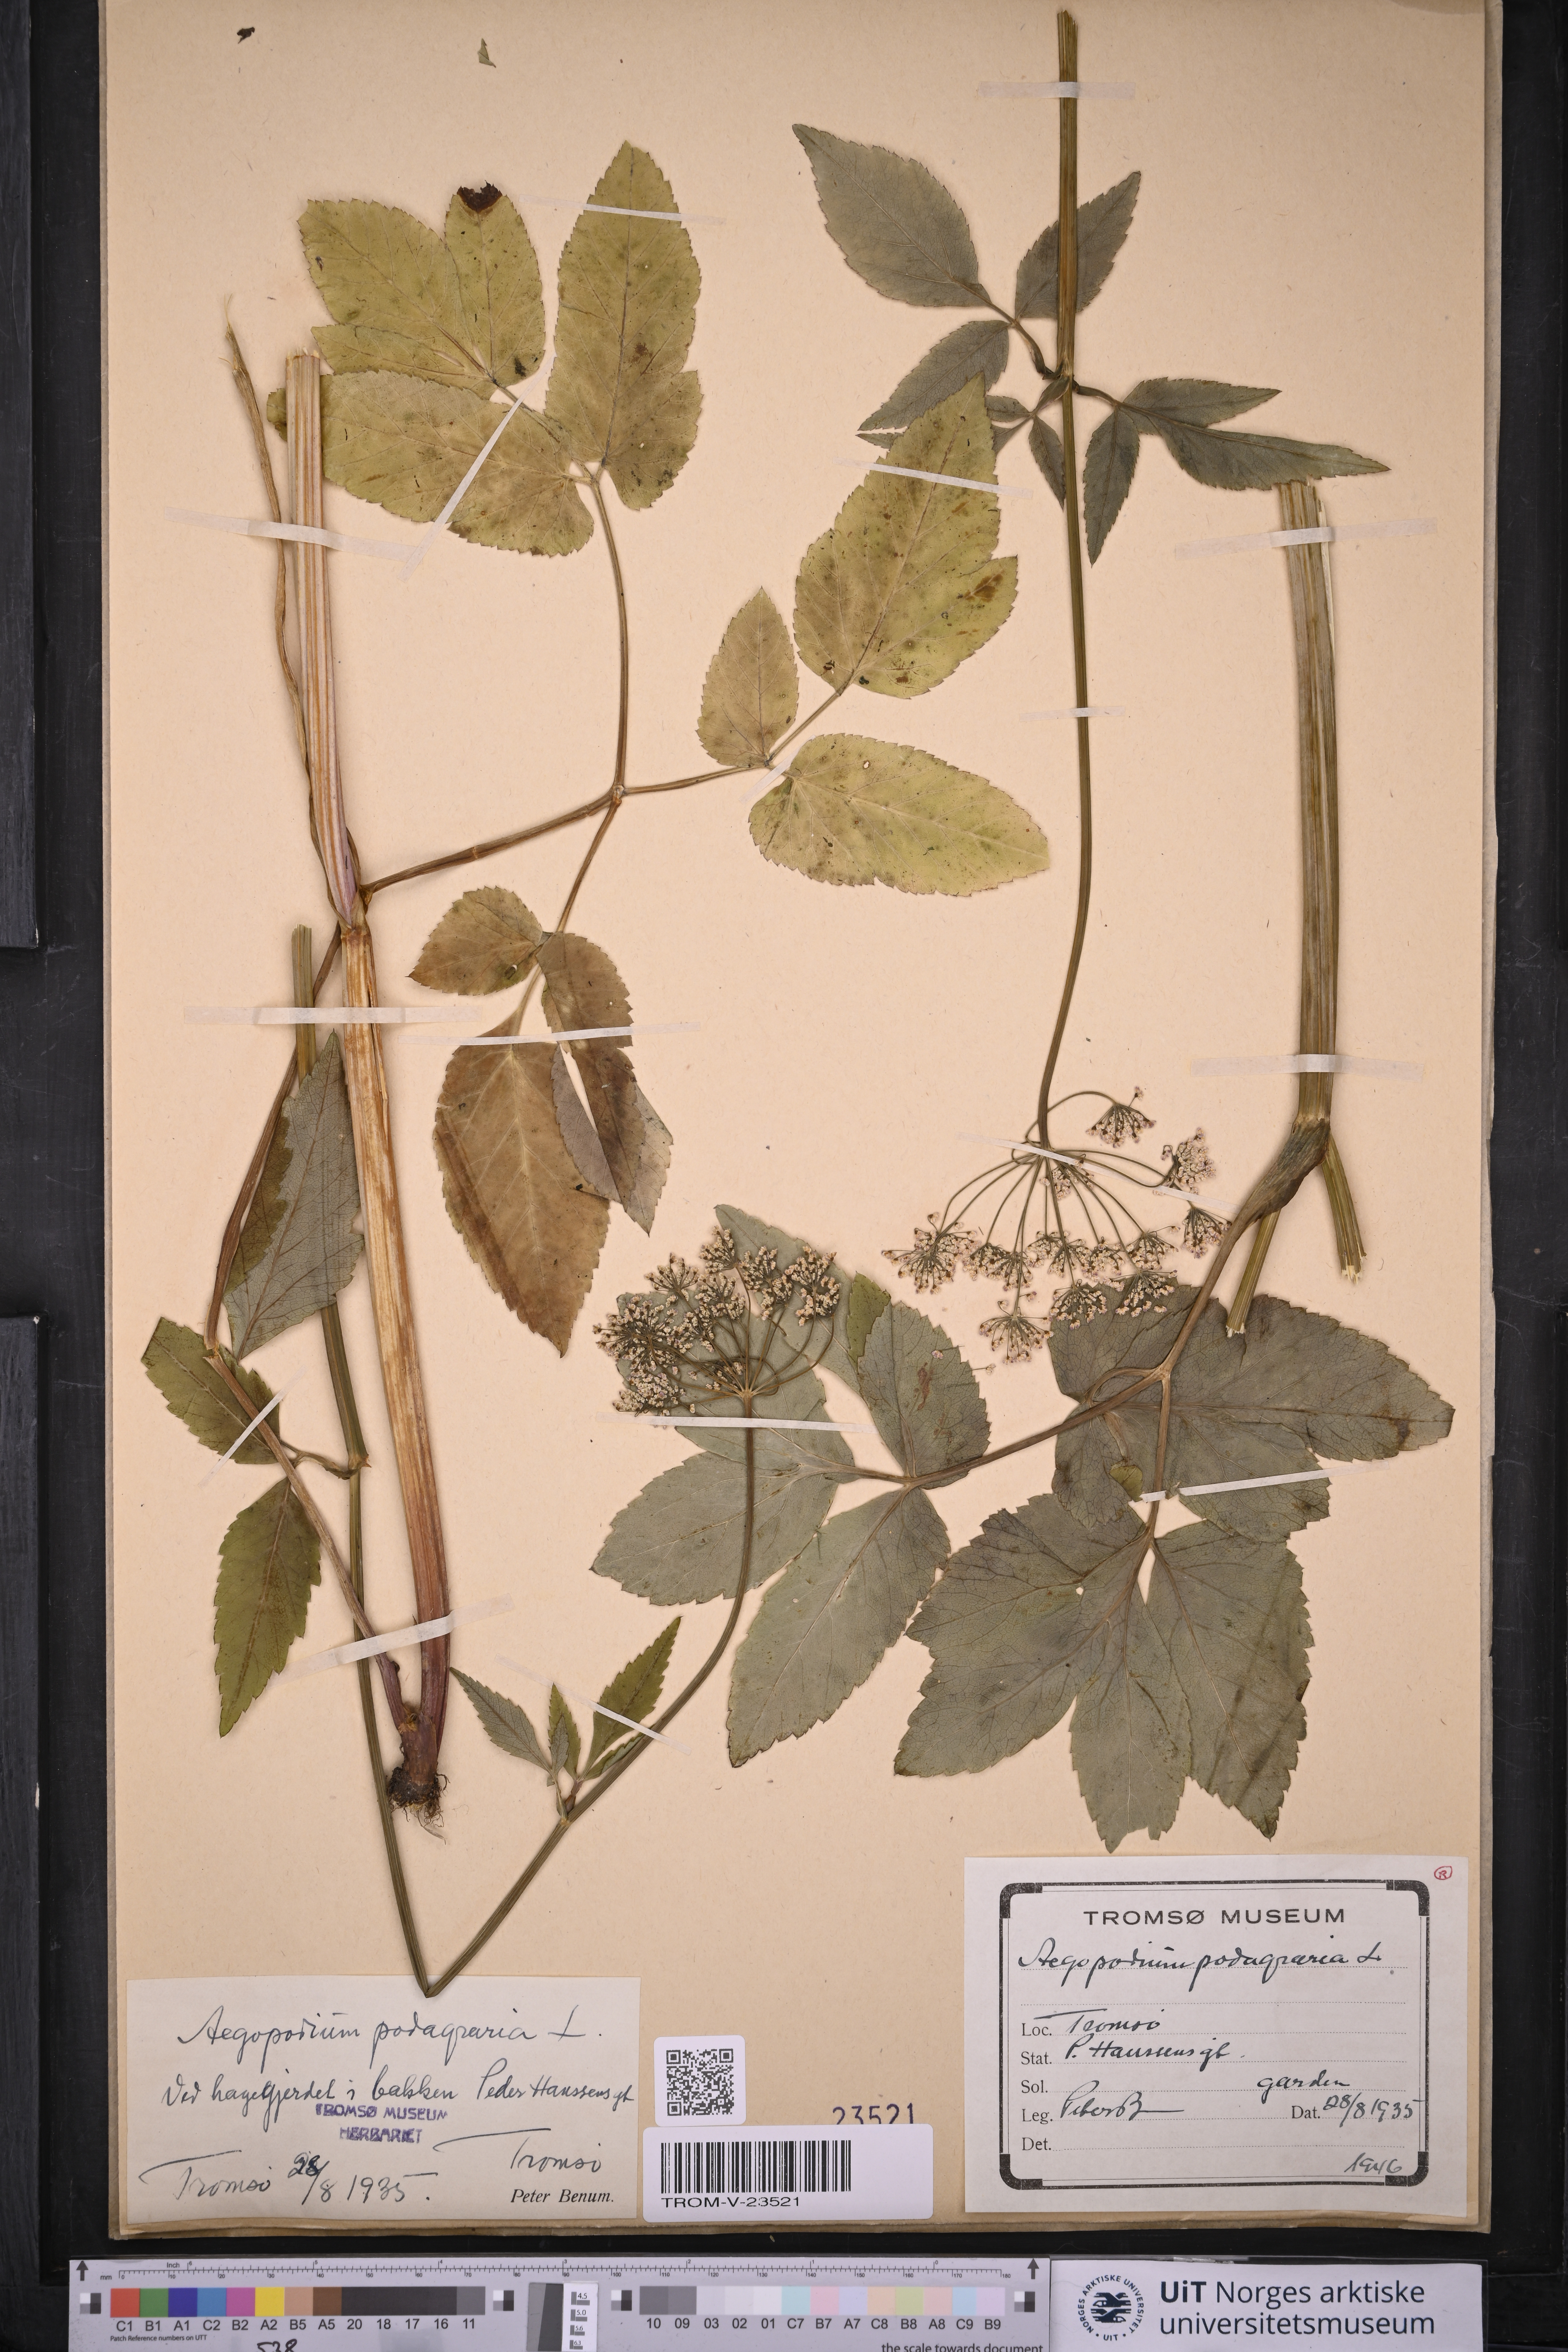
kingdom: Plantae
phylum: Tracheophyta
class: Magnoliopsida
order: Apiales
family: Apiaceae
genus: Aegopodium
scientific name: Aegopodium podagraria
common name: Ground-elder
